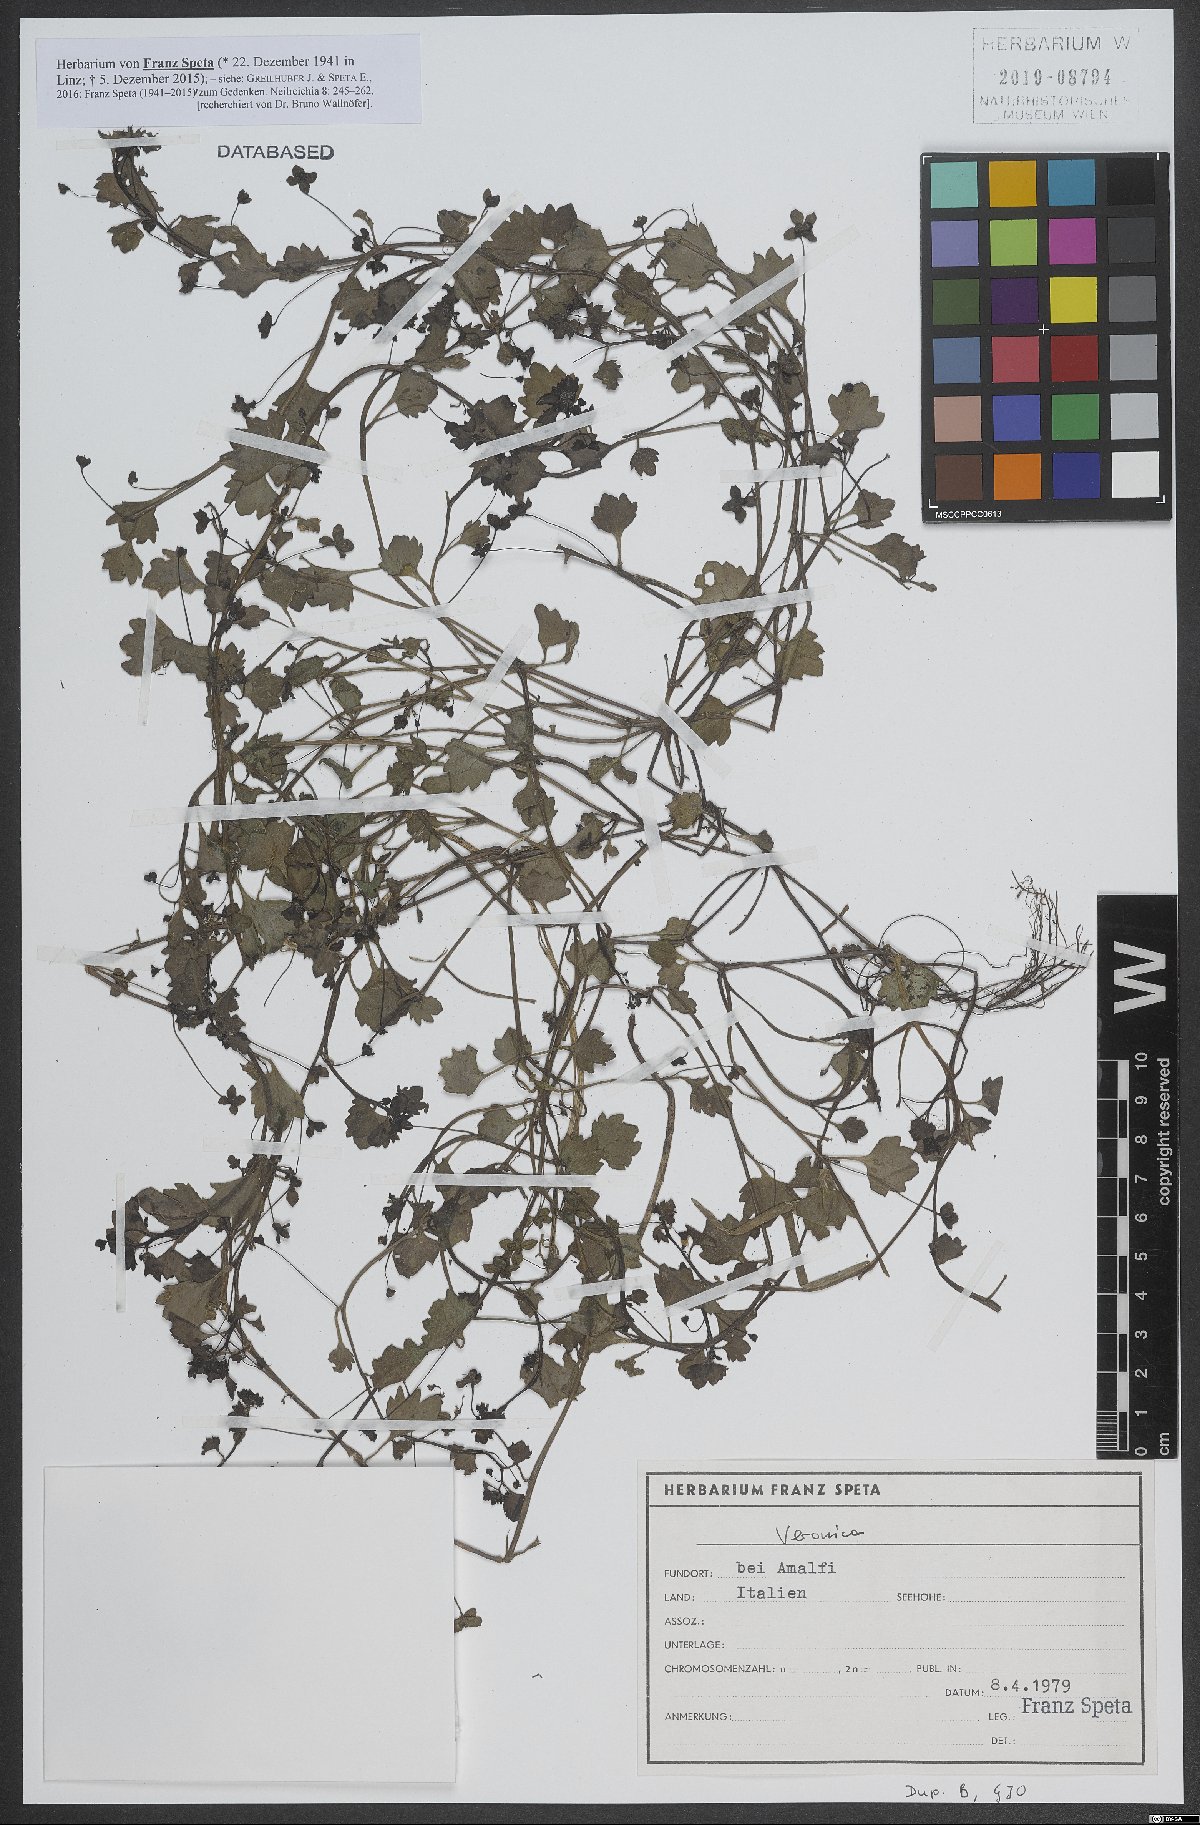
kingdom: Plantae
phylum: Tracheophyta
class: Magnoliopsida
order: Lamiales
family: Plantaginaceae
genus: Veronica
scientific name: Veronica
